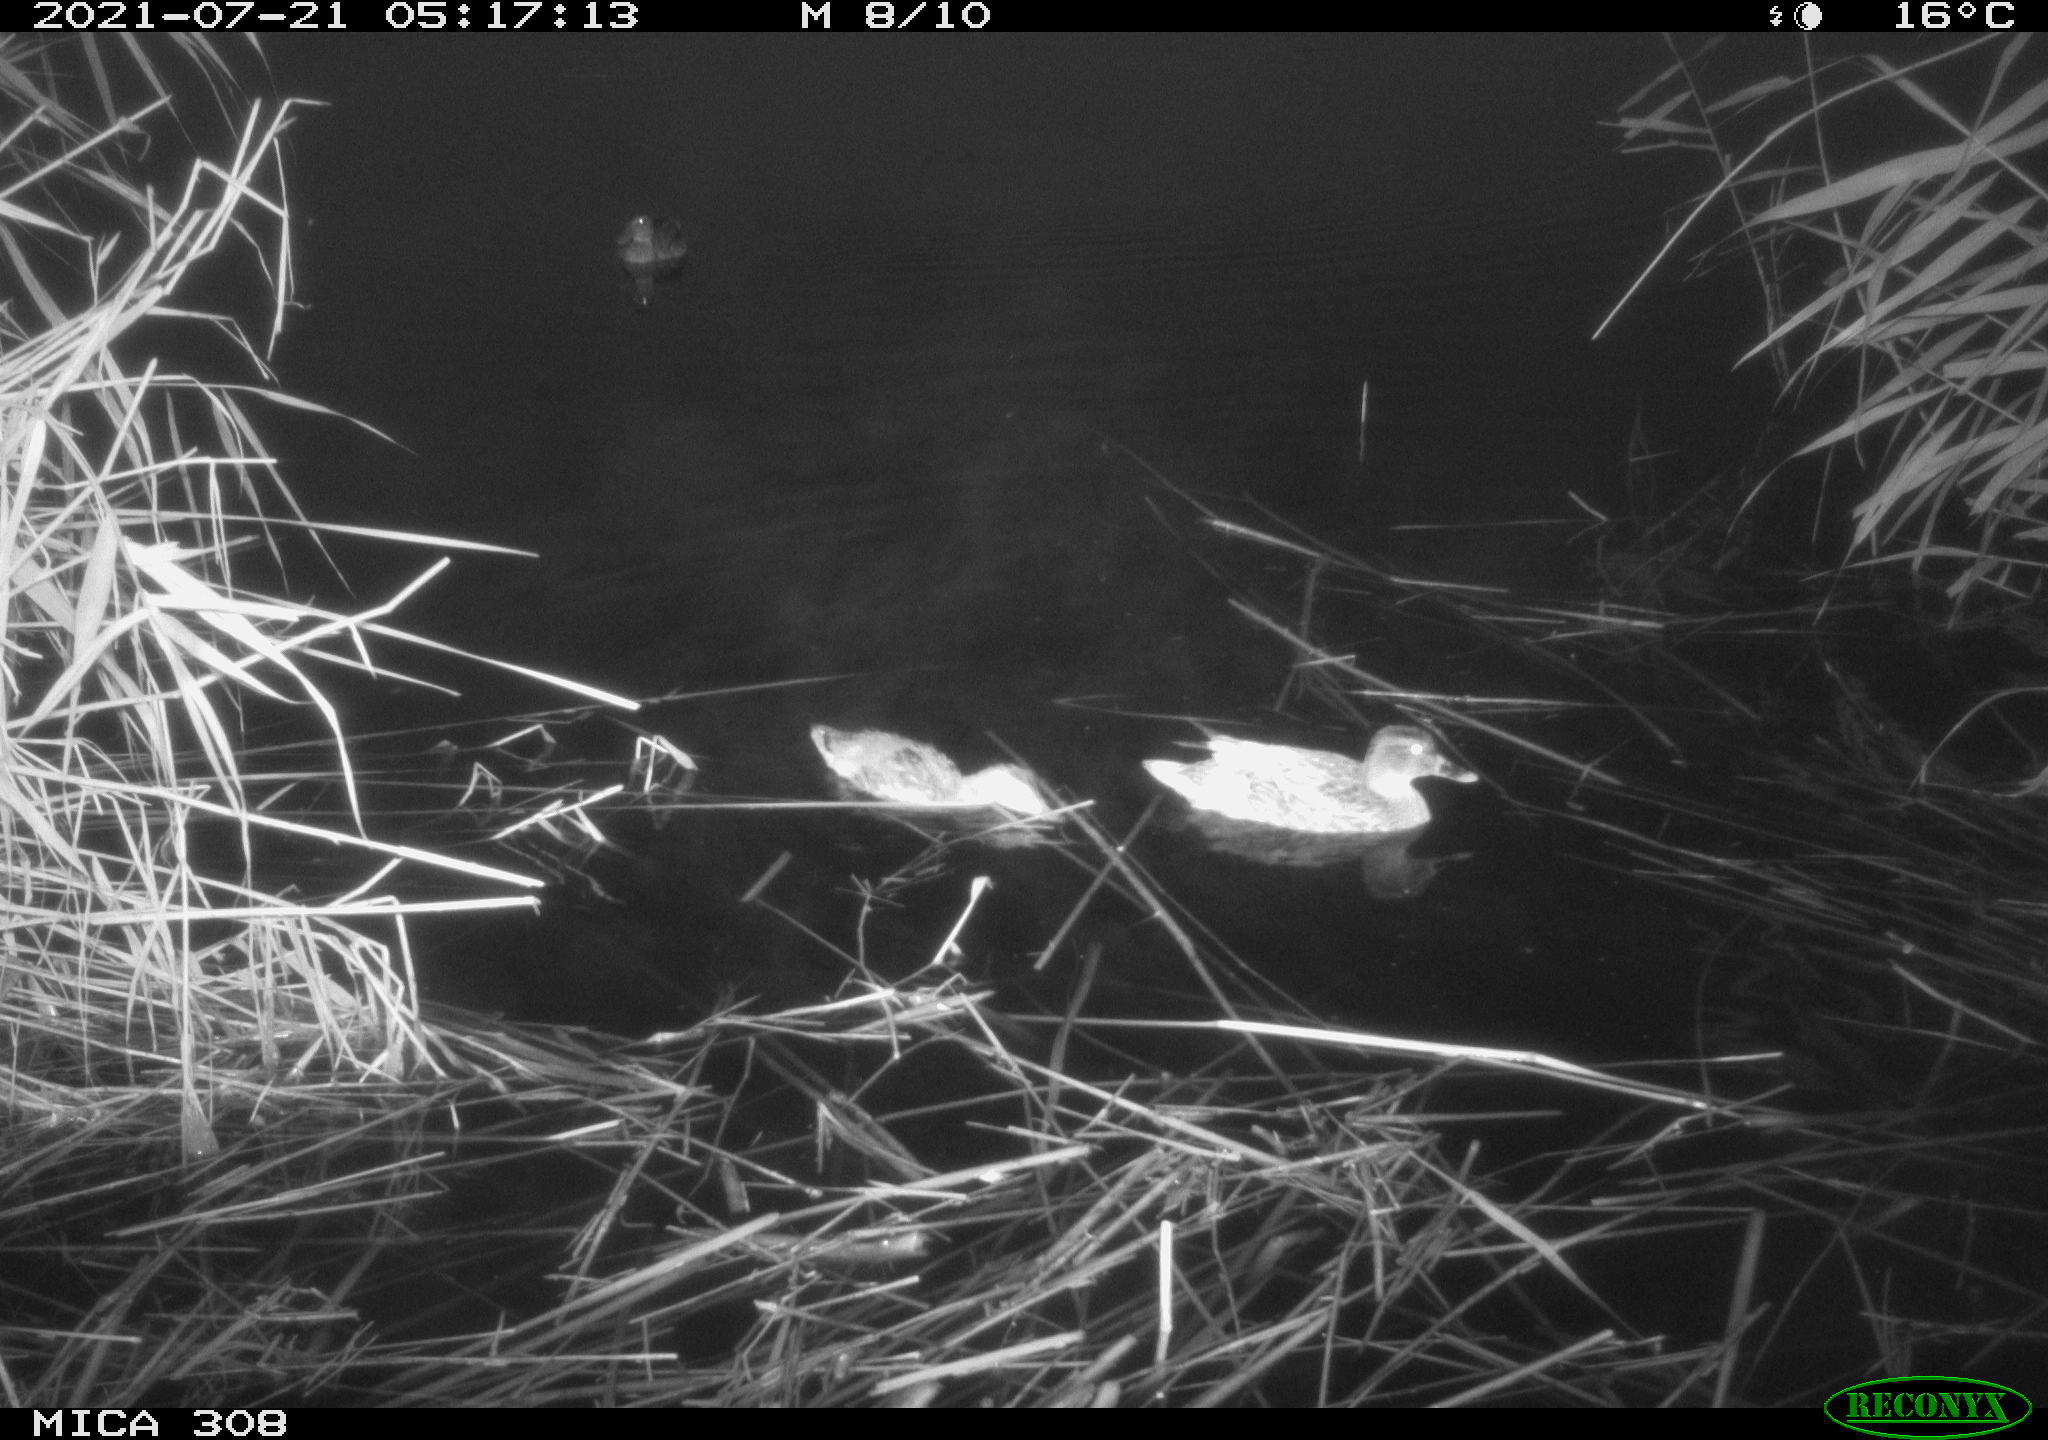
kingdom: Animalia
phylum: Chordata
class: Aves
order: Anseriformes
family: Anatidae
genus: Anas
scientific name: Anas platyrhynchos
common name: Mallard
